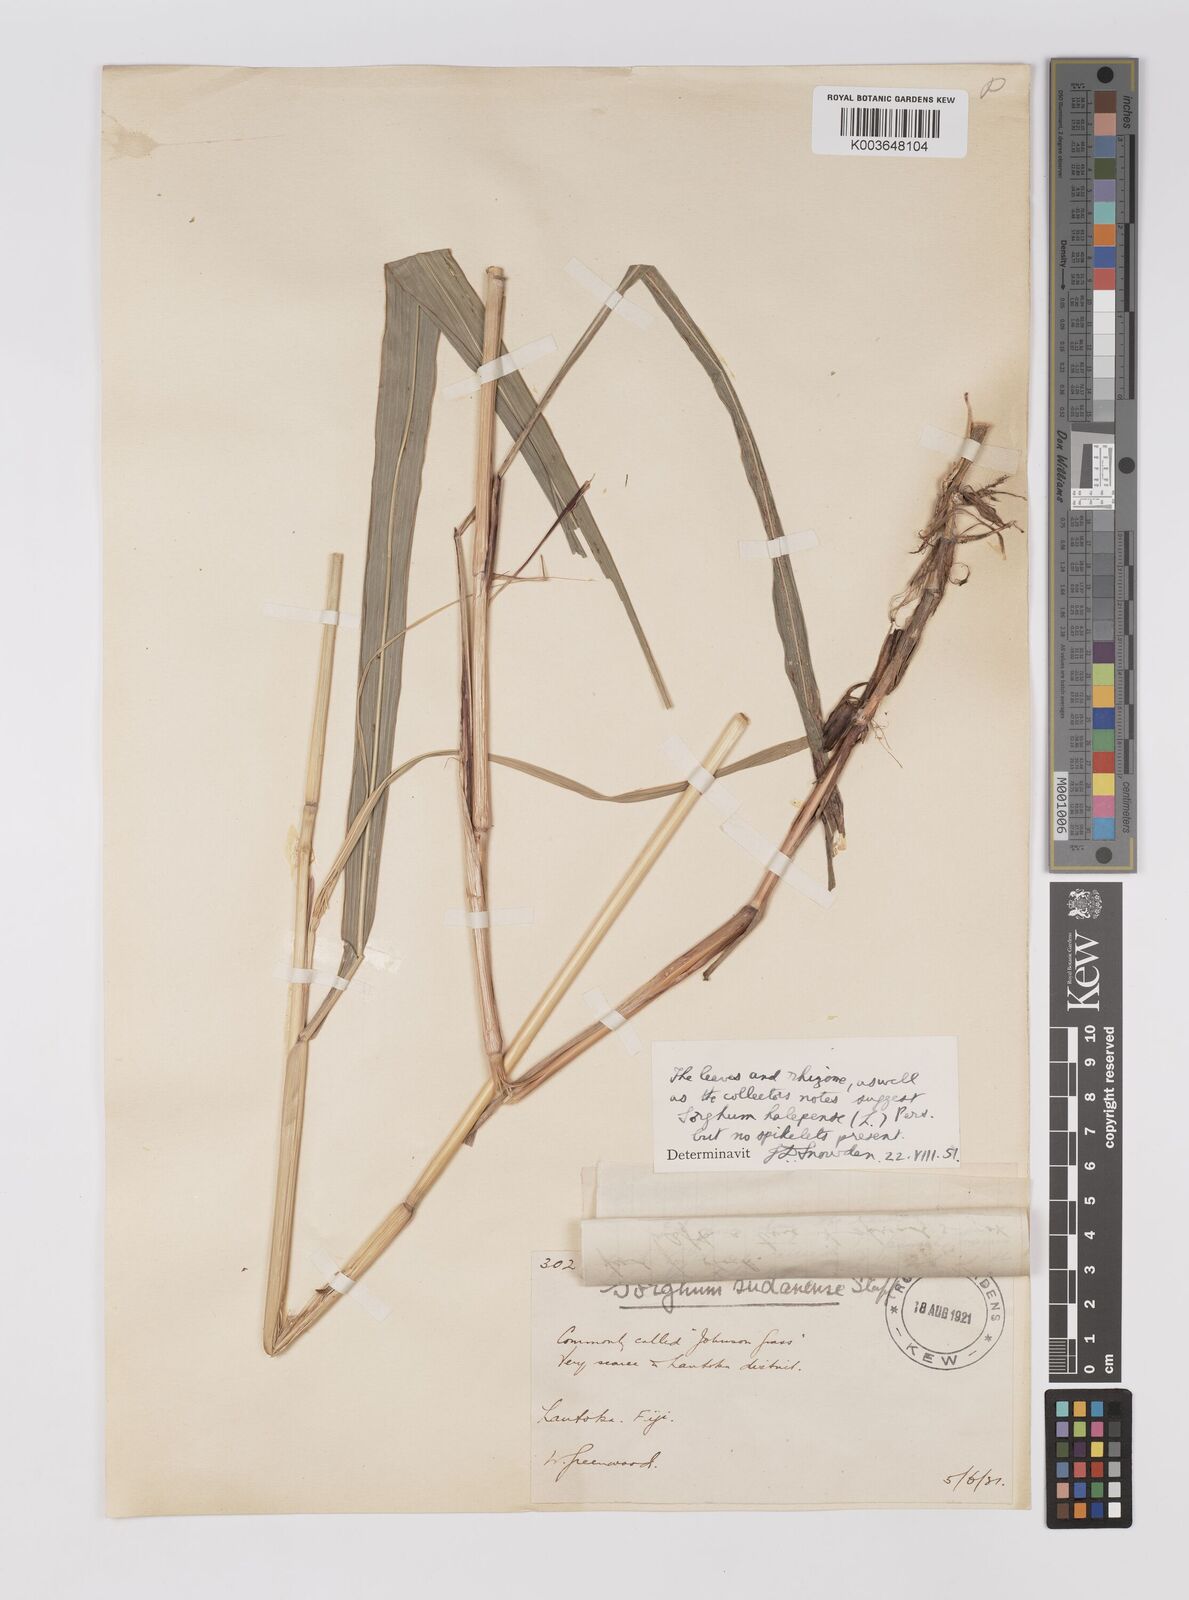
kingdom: Plantae
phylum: Tracheophyta
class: Liliopsida
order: Poales
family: Poaceae
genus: Sorghum
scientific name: Sorghum halepense
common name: Johnson-grass
